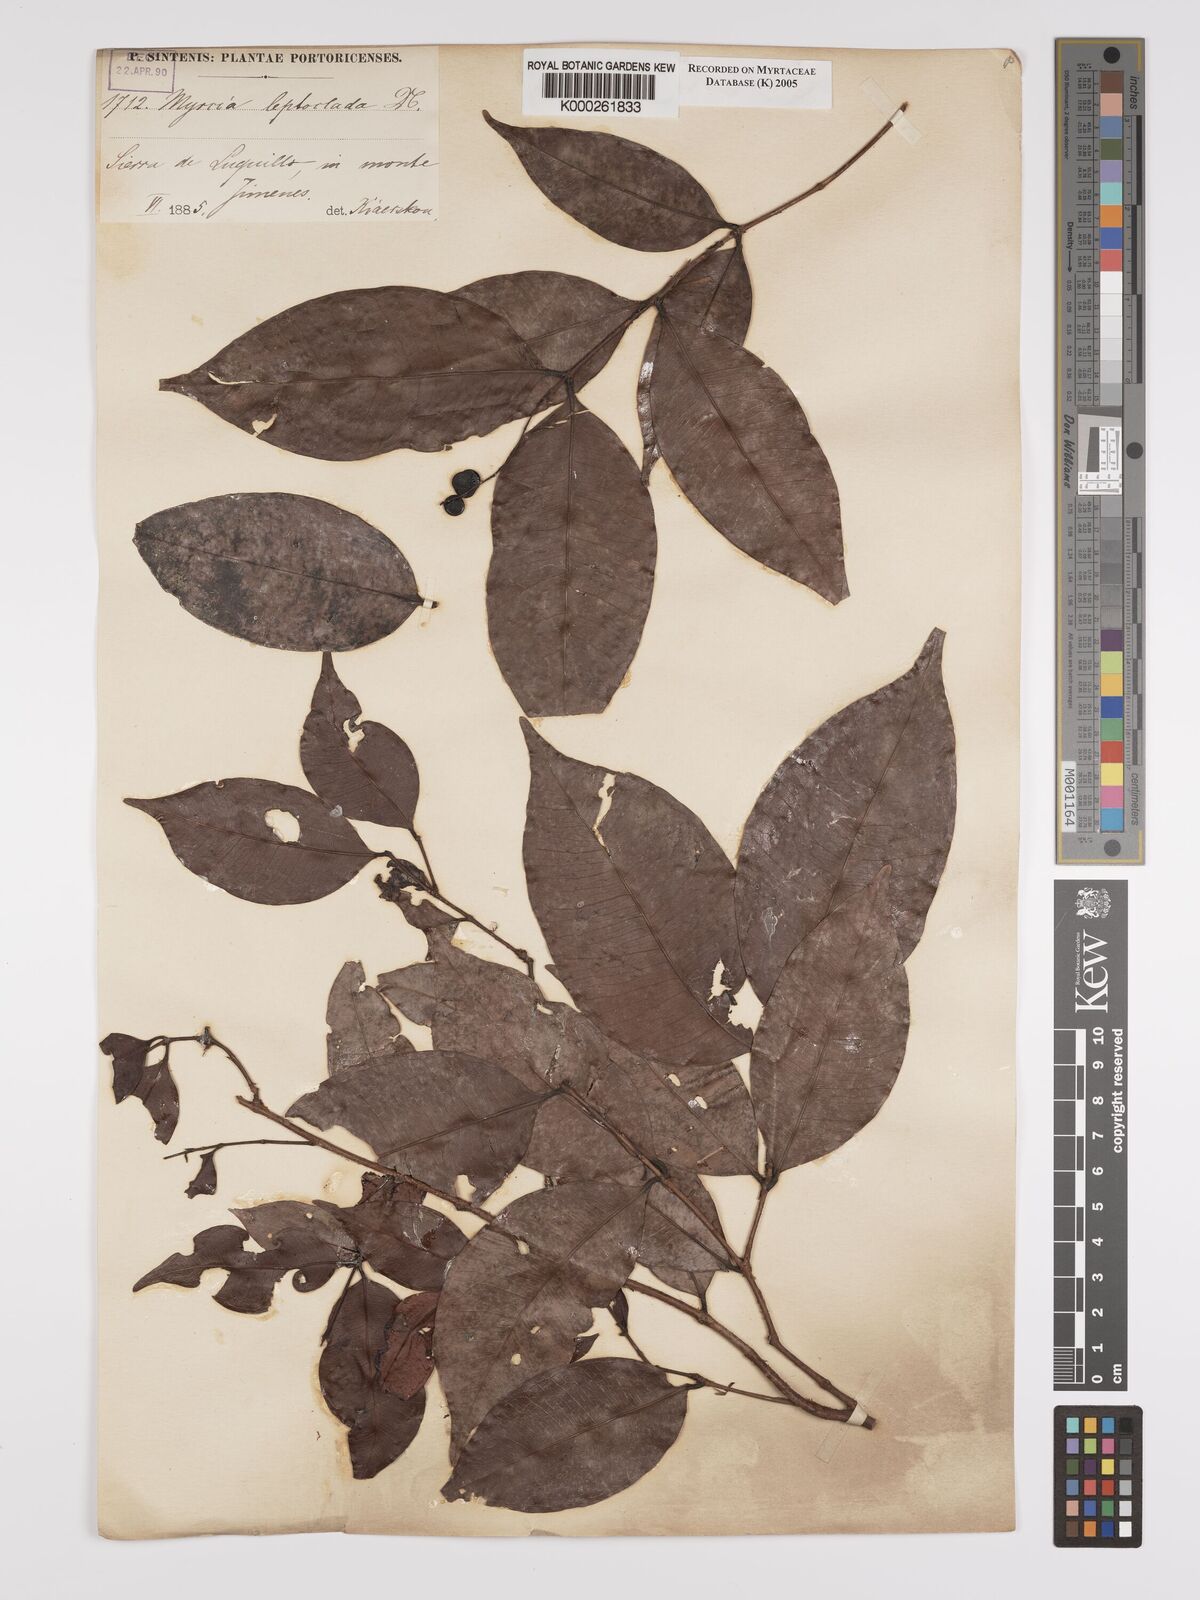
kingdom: Plantae
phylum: Tracheophyta
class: Magnoliopsida
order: Myrtales
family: Myrtaceae
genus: Myrcia
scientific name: Myrcia amazonica
